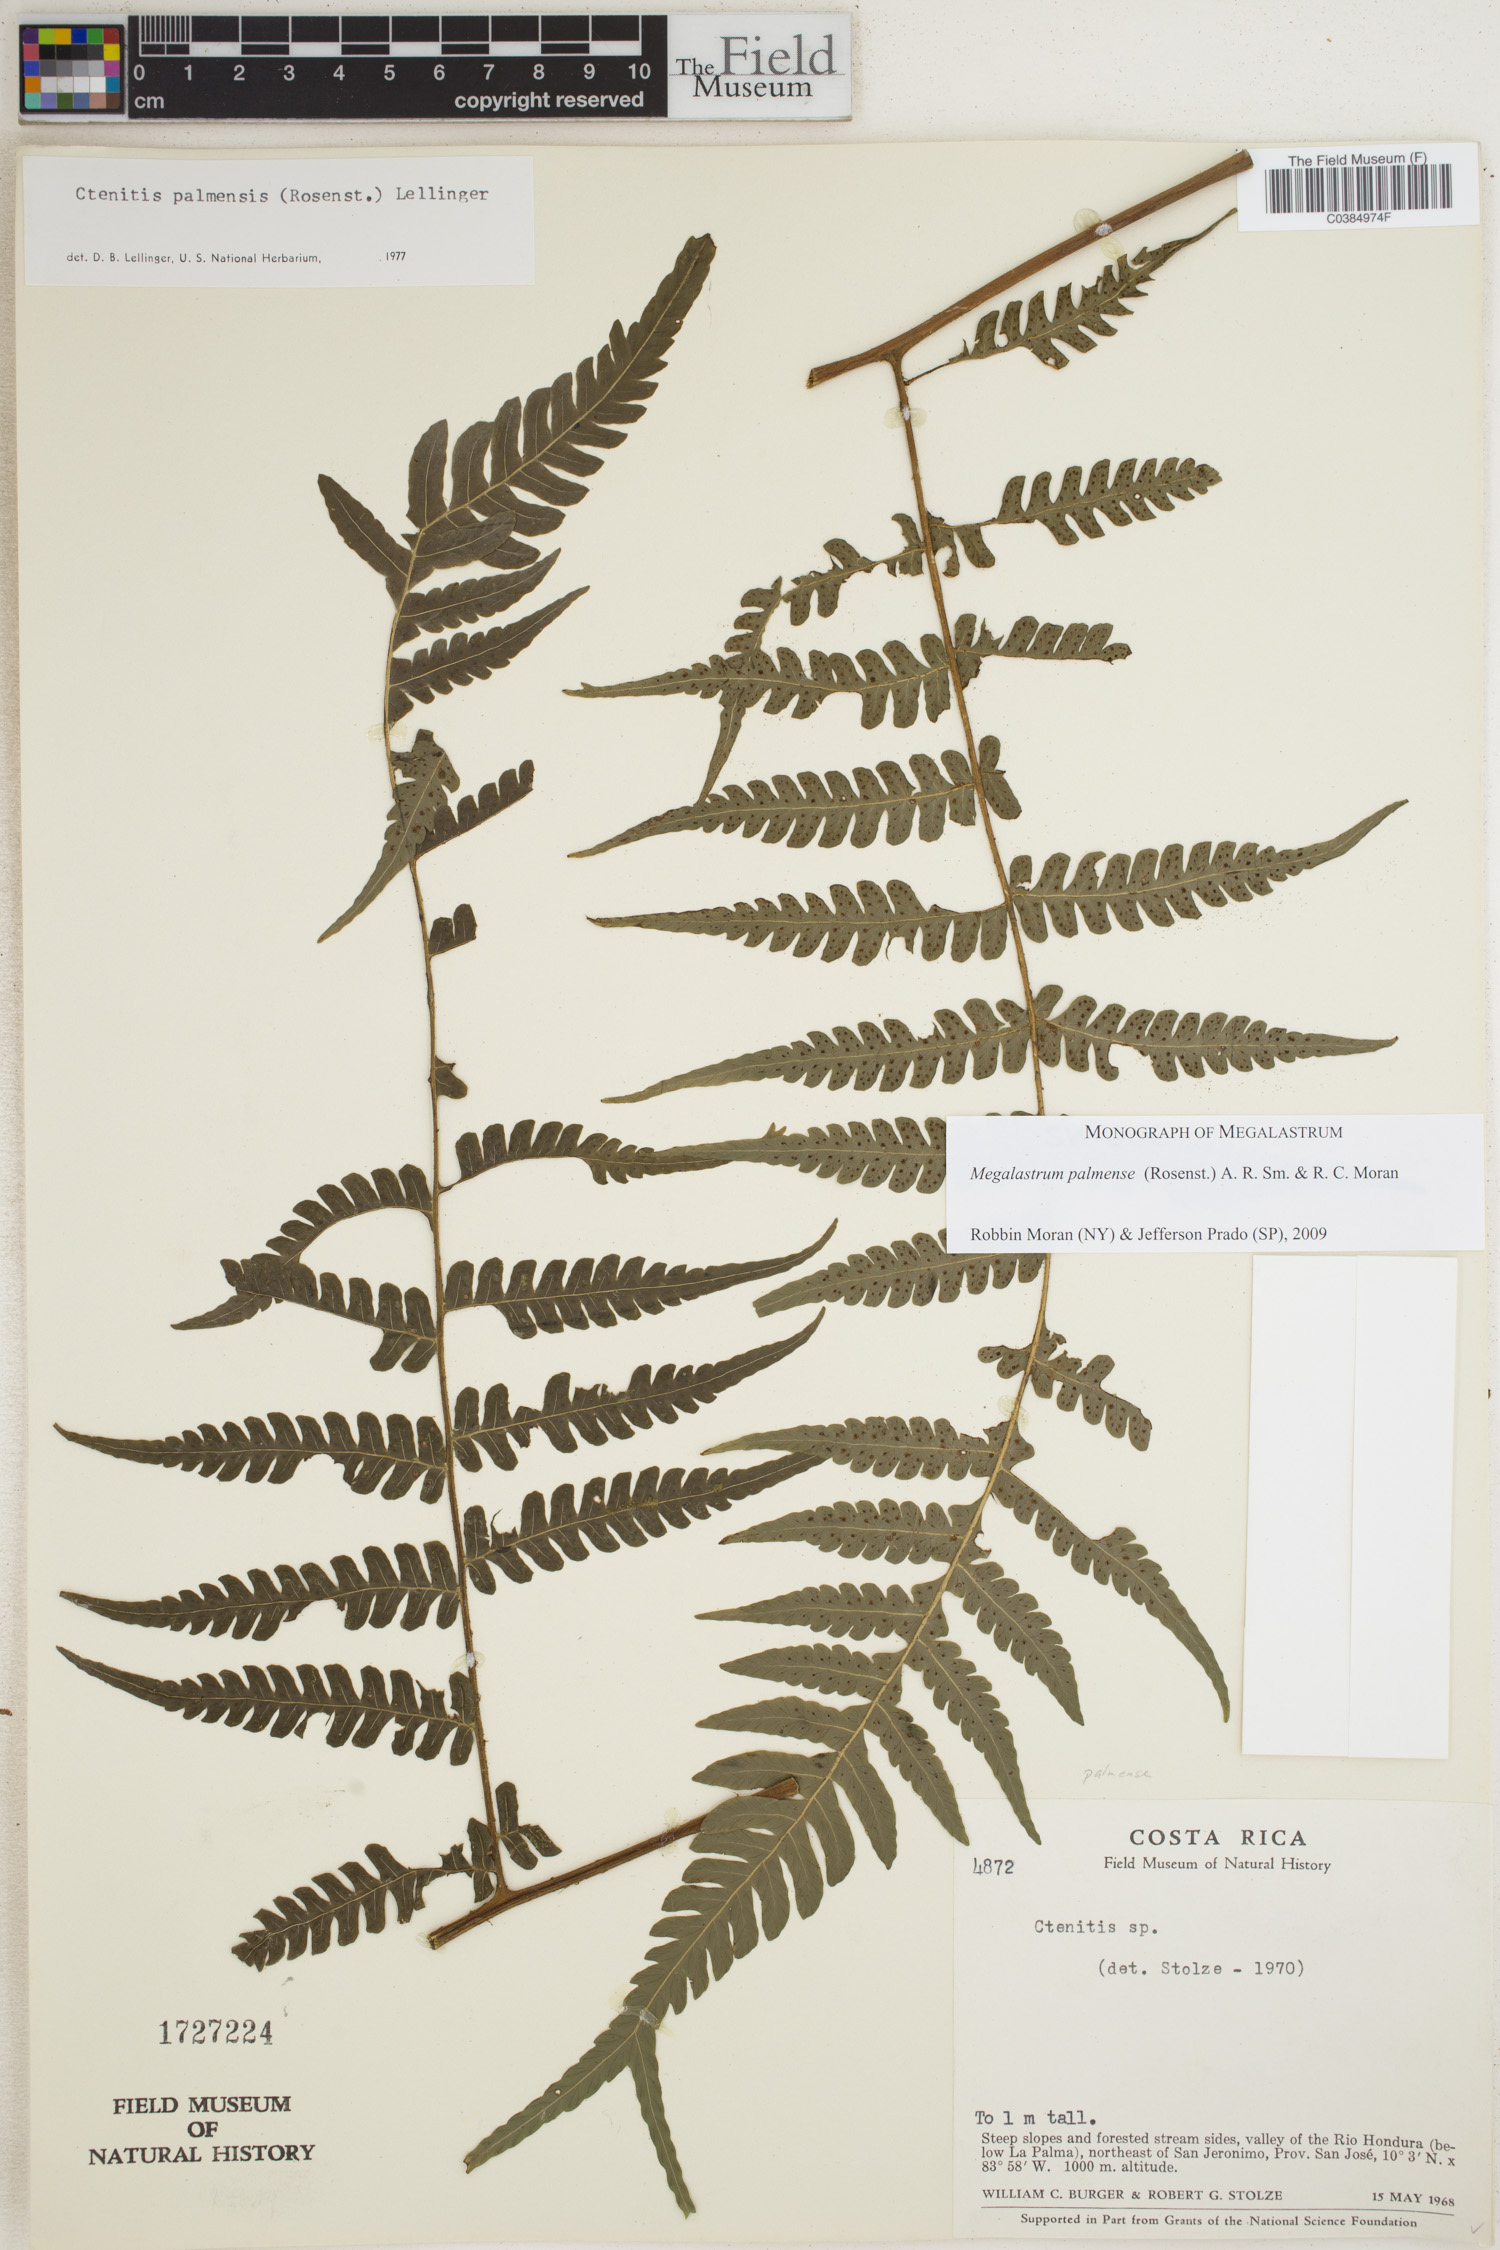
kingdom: Plantae
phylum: Tracheophyta
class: Polypodiopsida
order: Polypodiales
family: Dryopteridaceae
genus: Megalastrum
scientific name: Megalastrum palmense
